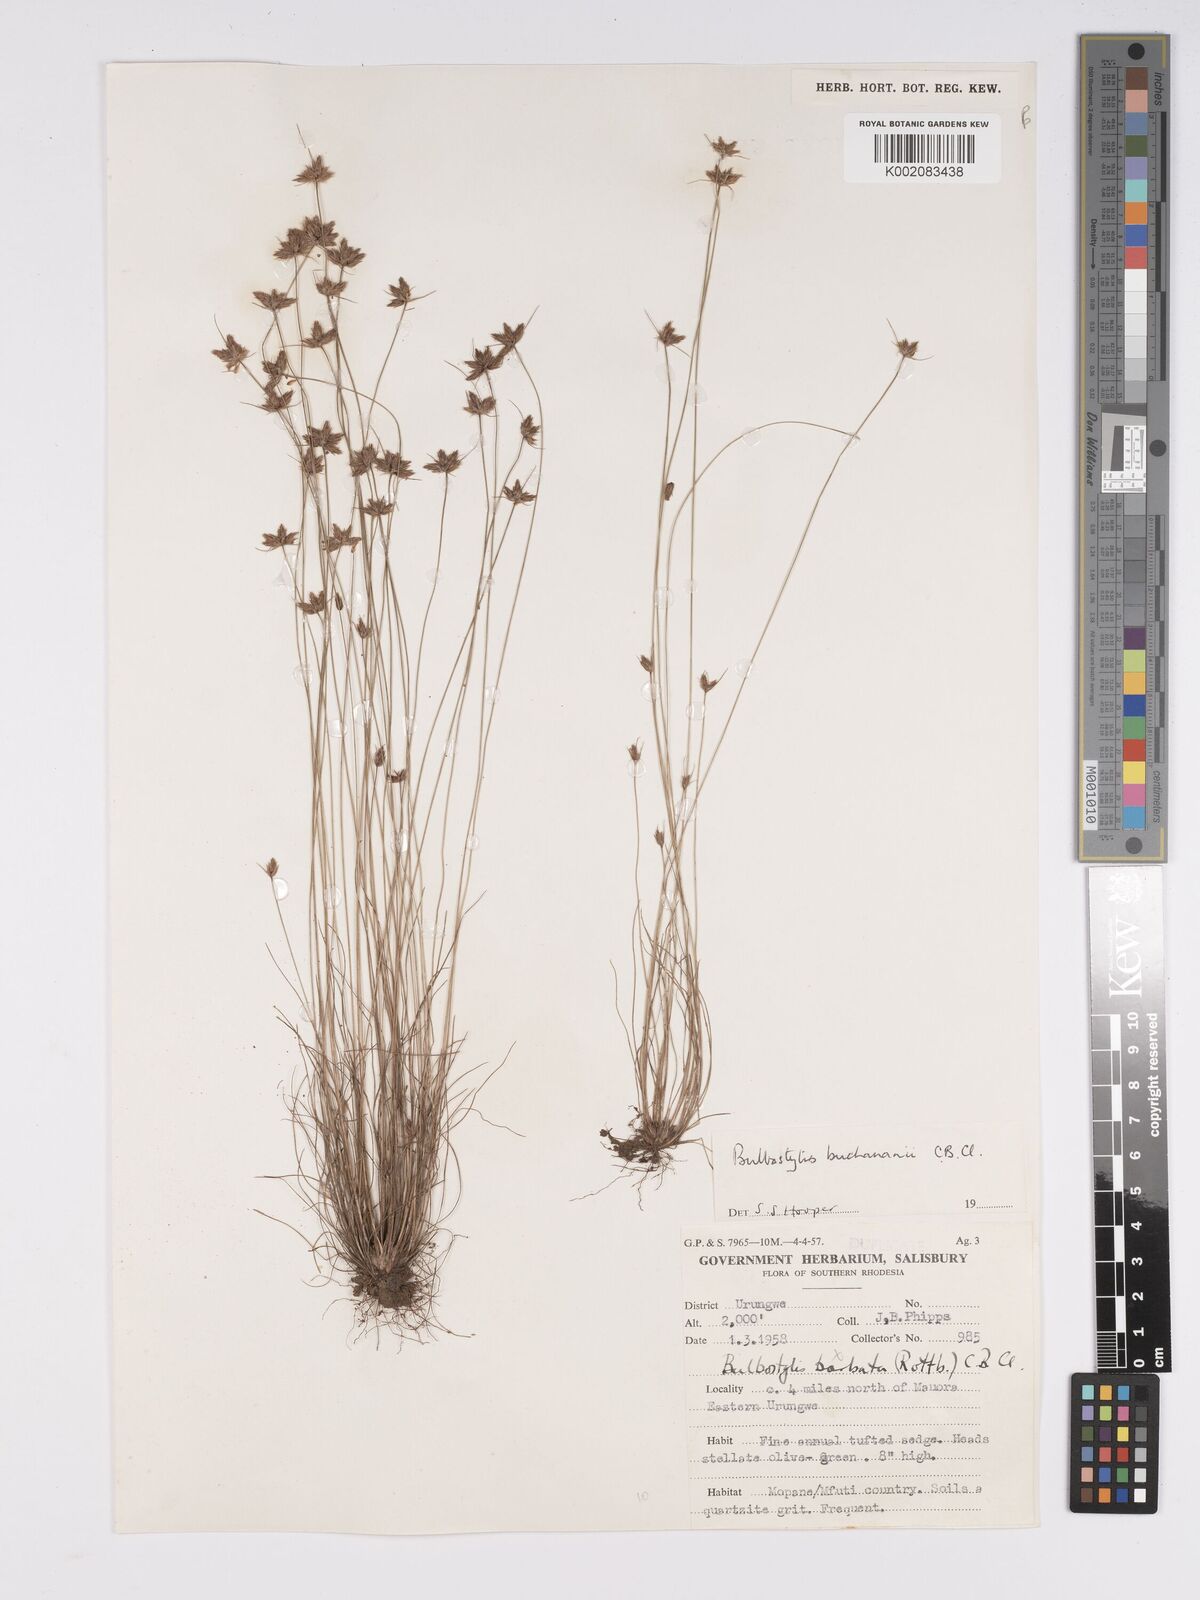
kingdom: Plantae
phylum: Tracheophyta
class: Liliopsida
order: Poales
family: Cyperaceae
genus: Bulbostylis
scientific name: Bulbostylis buchananii
